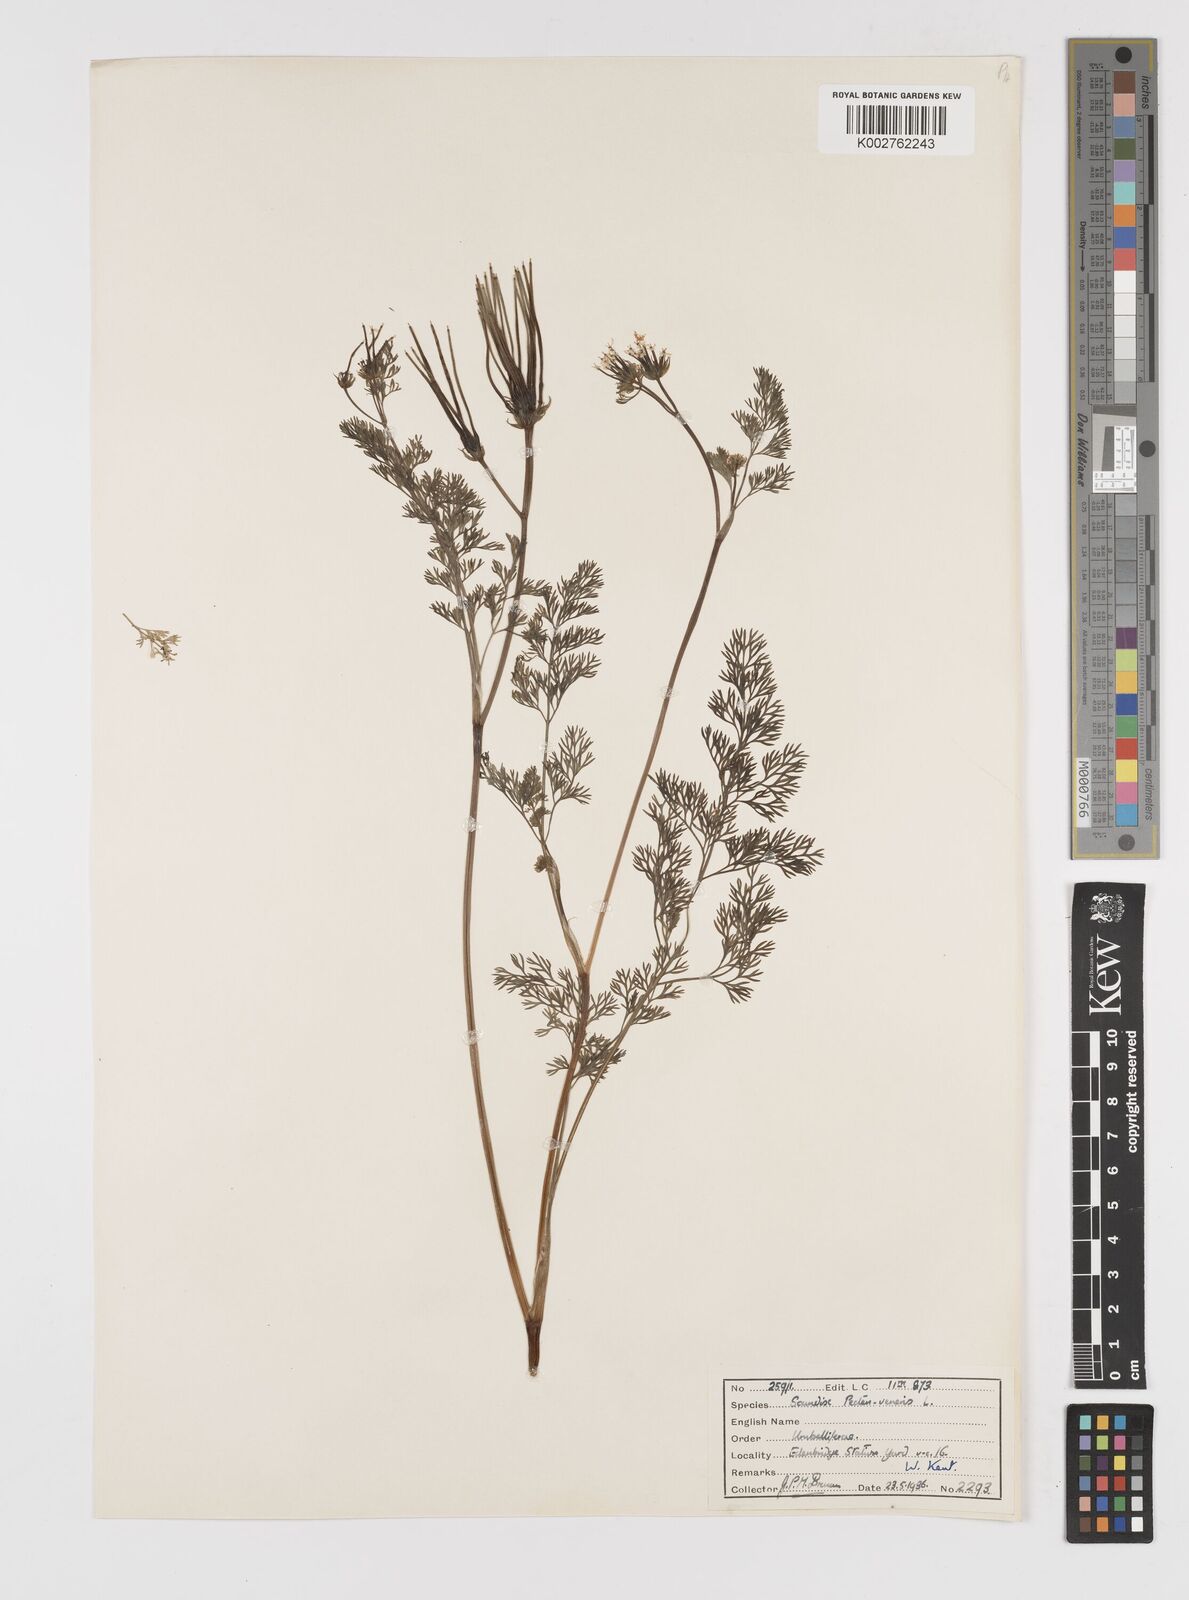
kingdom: Plantae
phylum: Tracheophyta
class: Magnoliopsida
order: Apiales
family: Apiaceae
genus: Scandix
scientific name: Scandix pecten-veneris
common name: Shepherd's-needle
